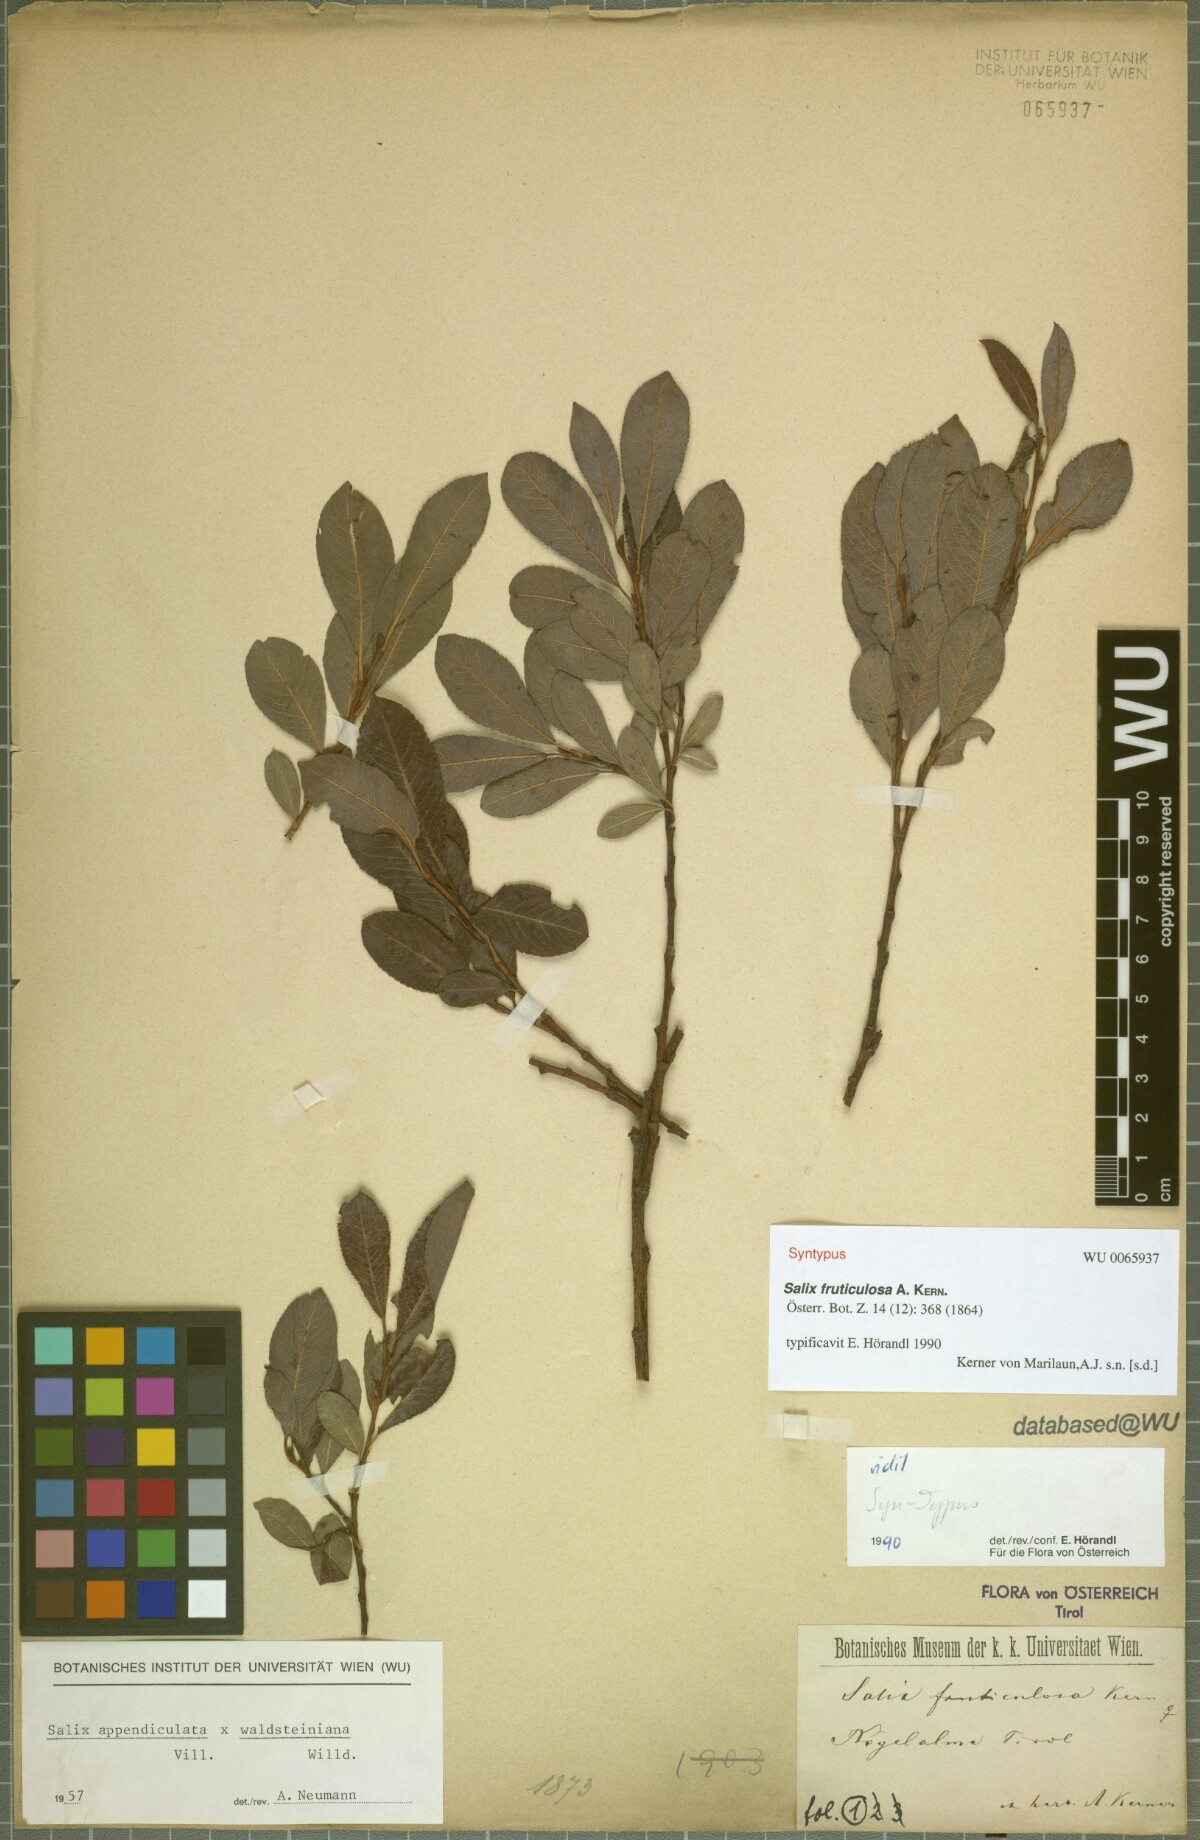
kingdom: Plantae
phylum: Tracheophyta
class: Magnoliopsida
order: Malpighiales
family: Salicaceae
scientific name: Salicaceae
